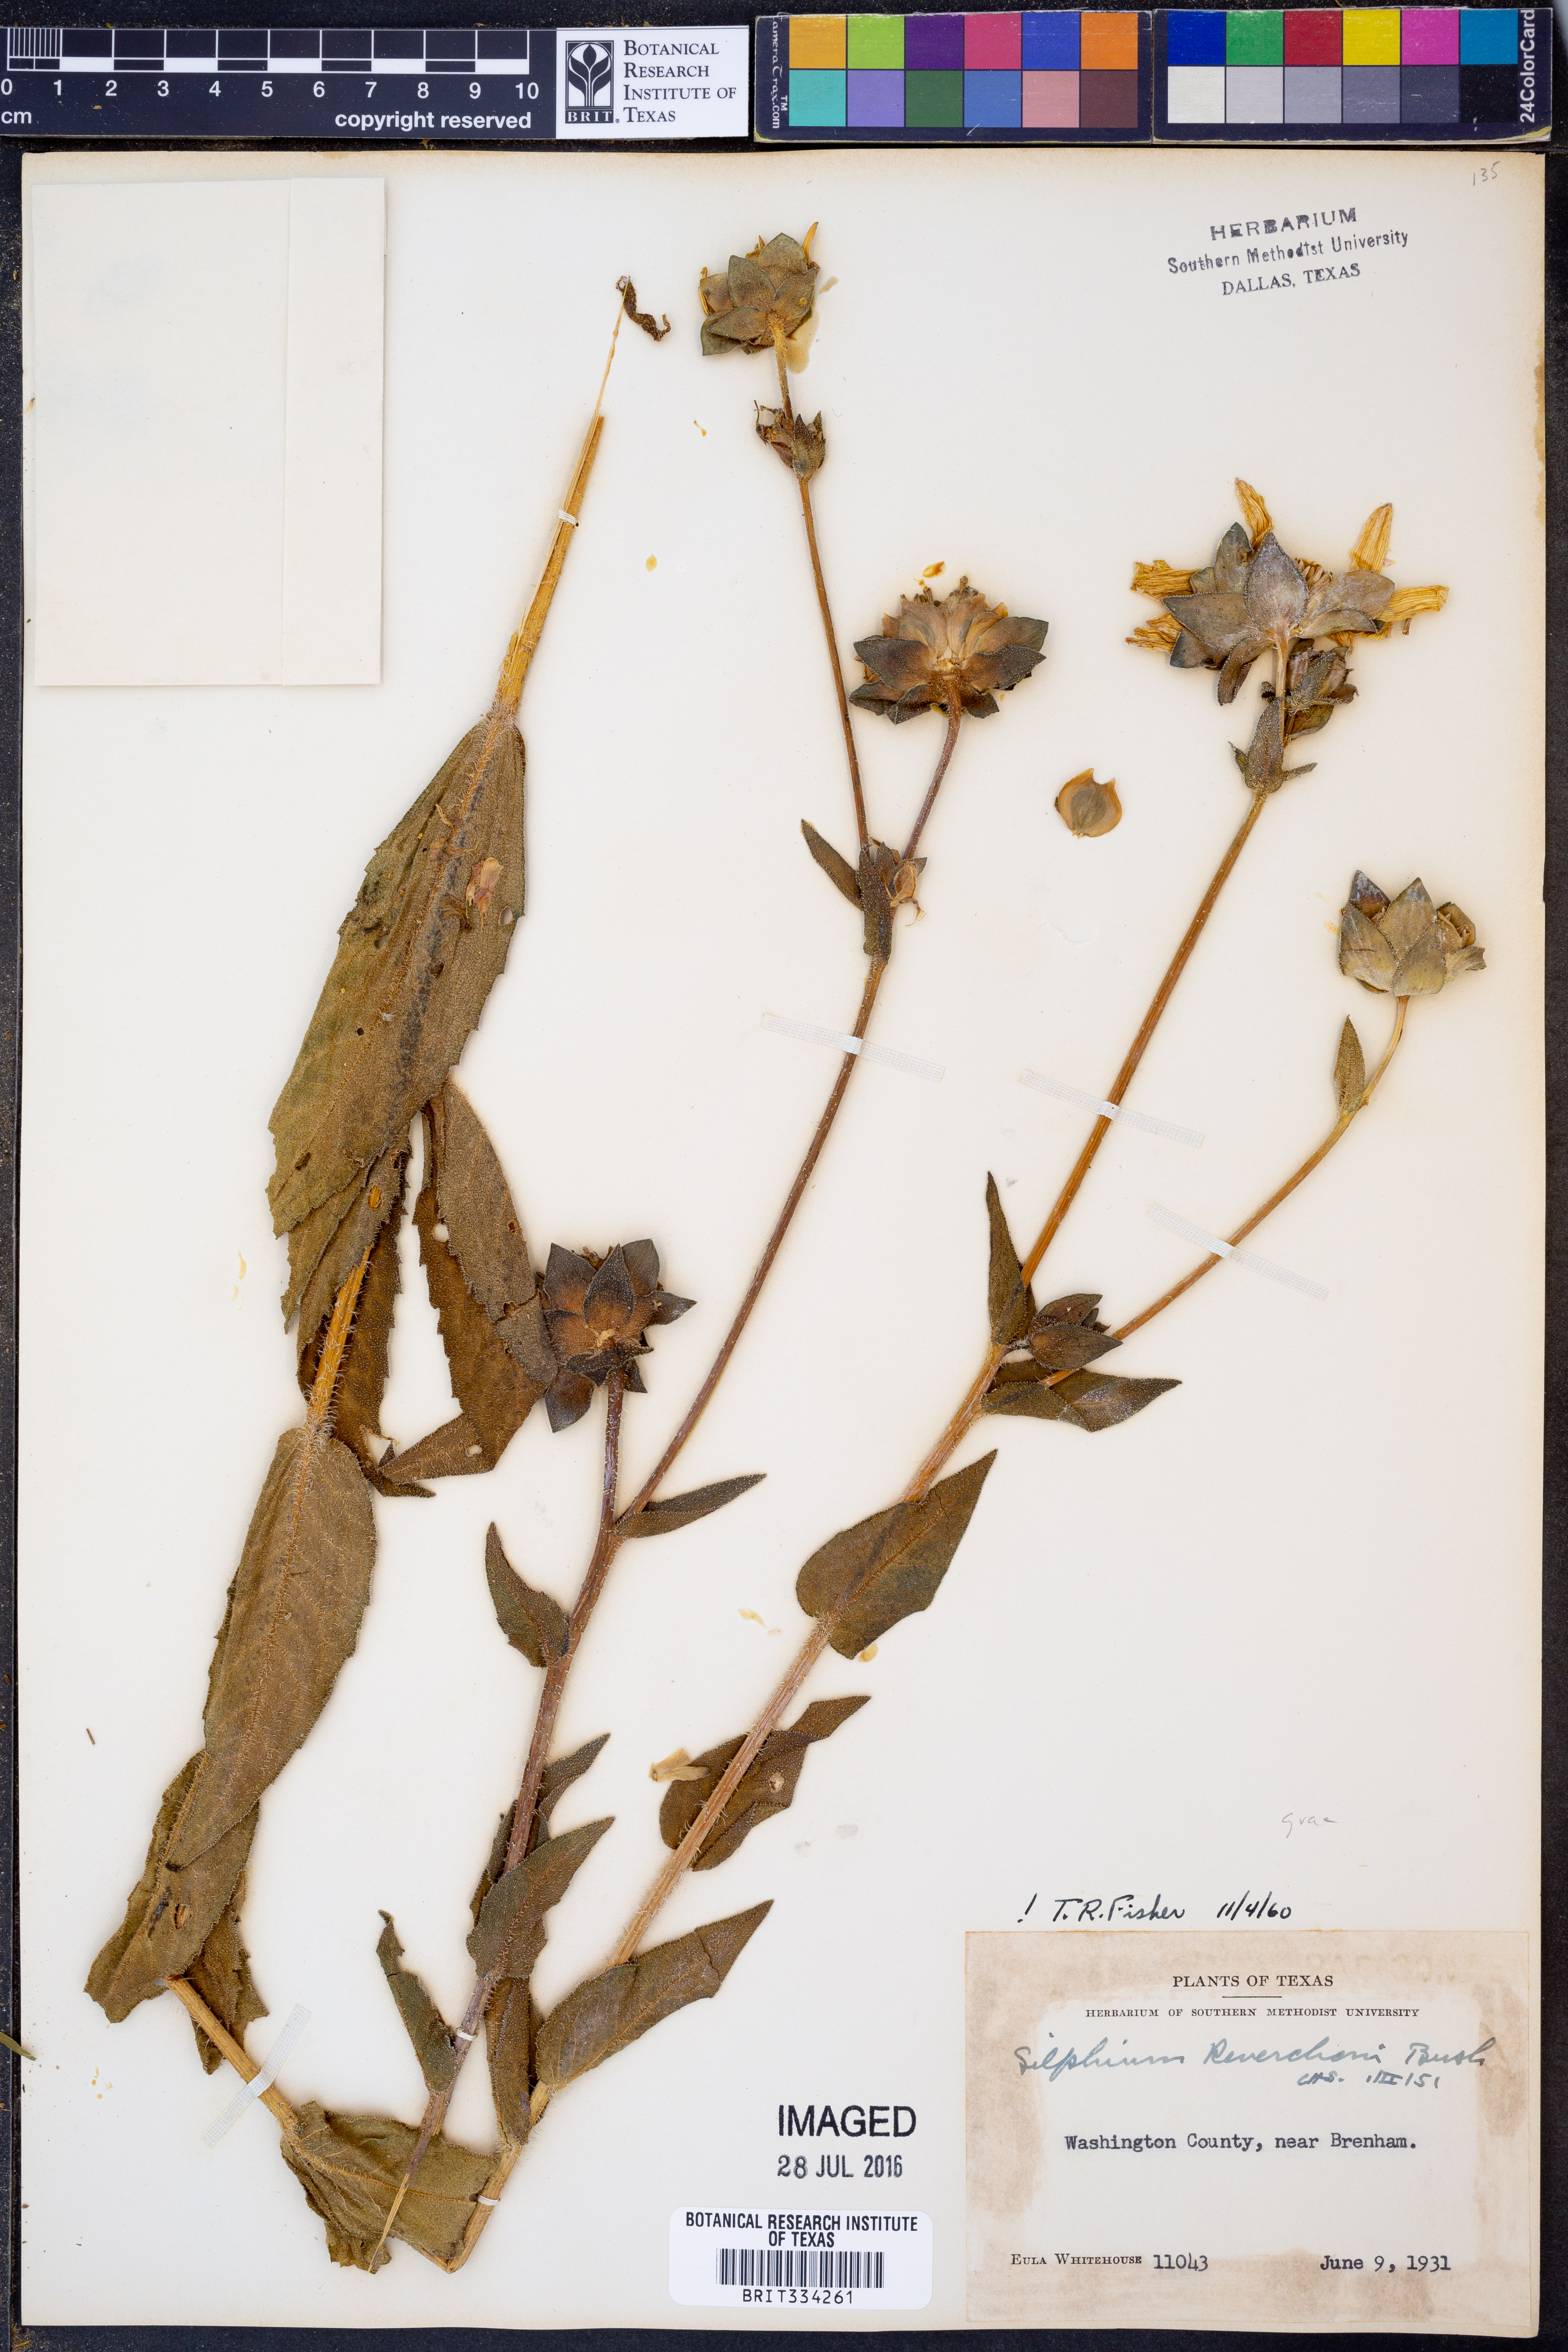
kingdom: Plantae
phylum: Tracheophyta
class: Magnoliopsida
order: Asterales
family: Asteraceae
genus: Silphium
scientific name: Silphium radula
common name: Roughleaf rosinweed
